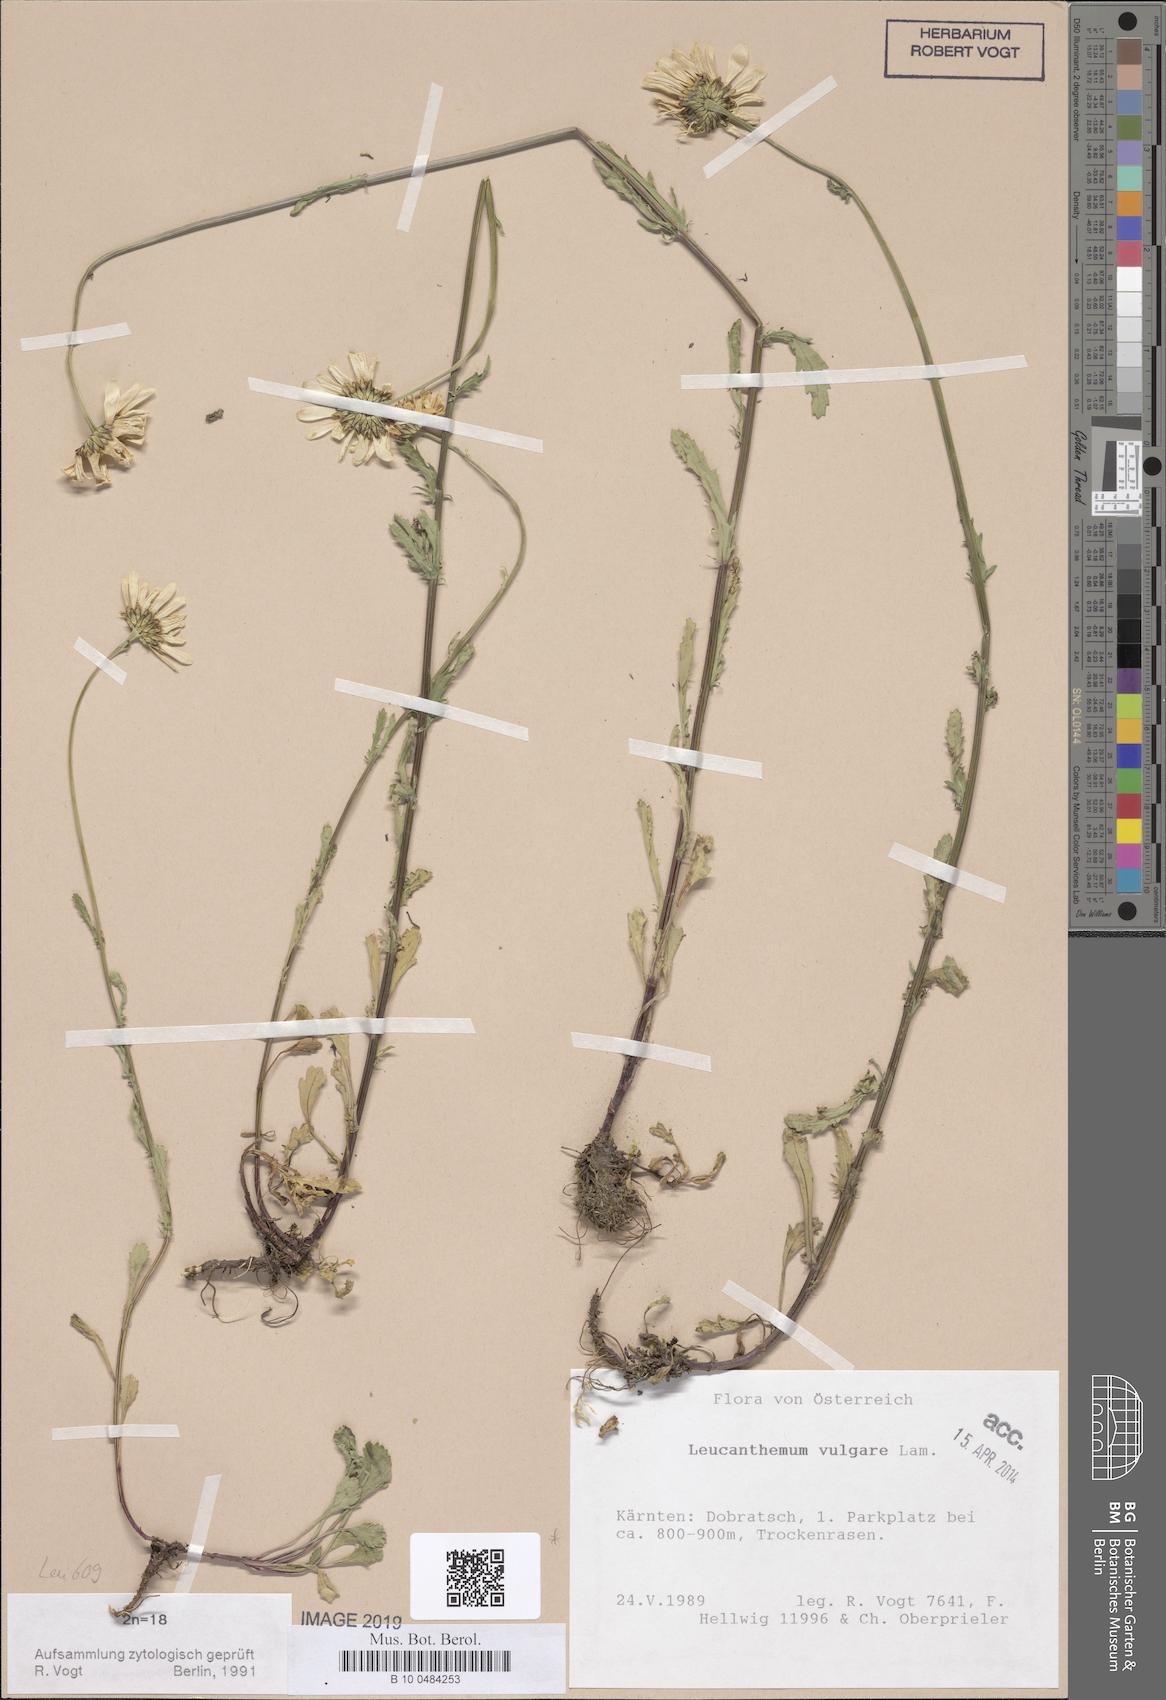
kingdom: Plantae
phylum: Tracheophyta
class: Magnoliopsida
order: Asterales
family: Asteraceae
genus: Leucanthemum
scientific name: Leucanthemum vulgare
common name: Oxeye daisy
